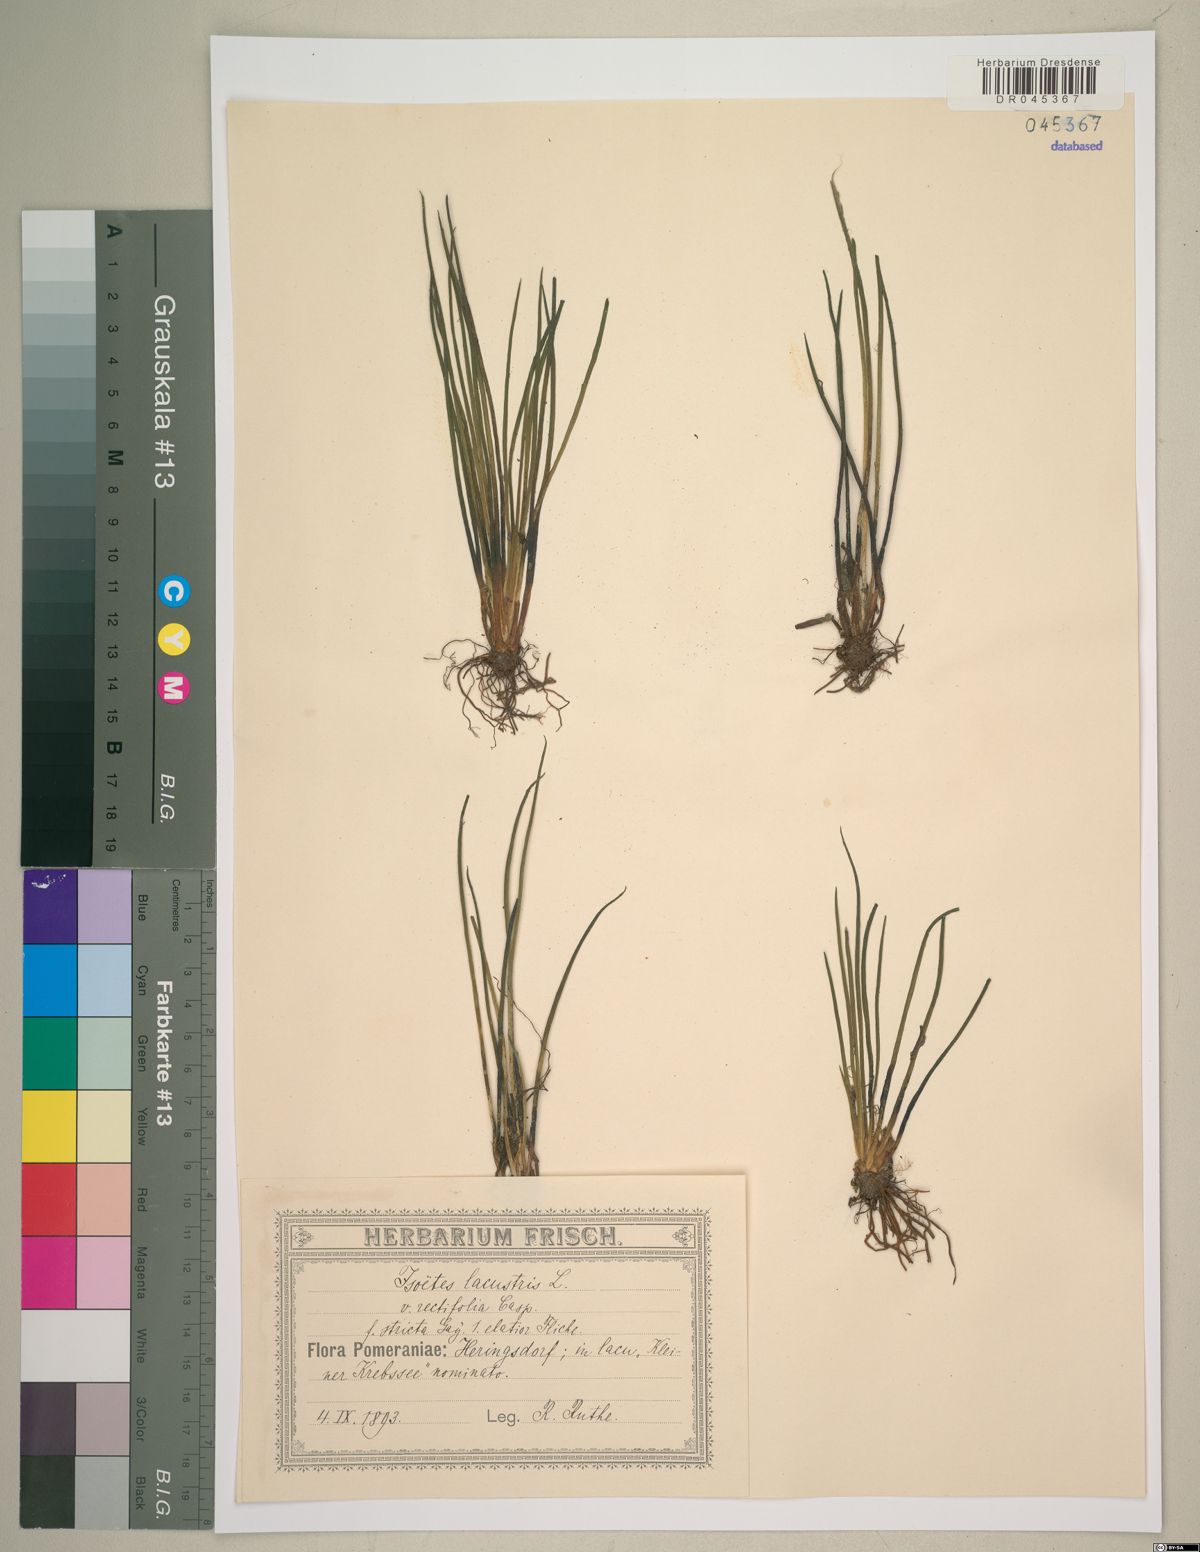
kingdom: Plantae
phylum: Tracheophyta
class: Lycopodiopsida
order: Isoetales
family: Isoetaceae
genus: Isoetes
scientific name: Isoetes lacustris
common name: Common quillwort
